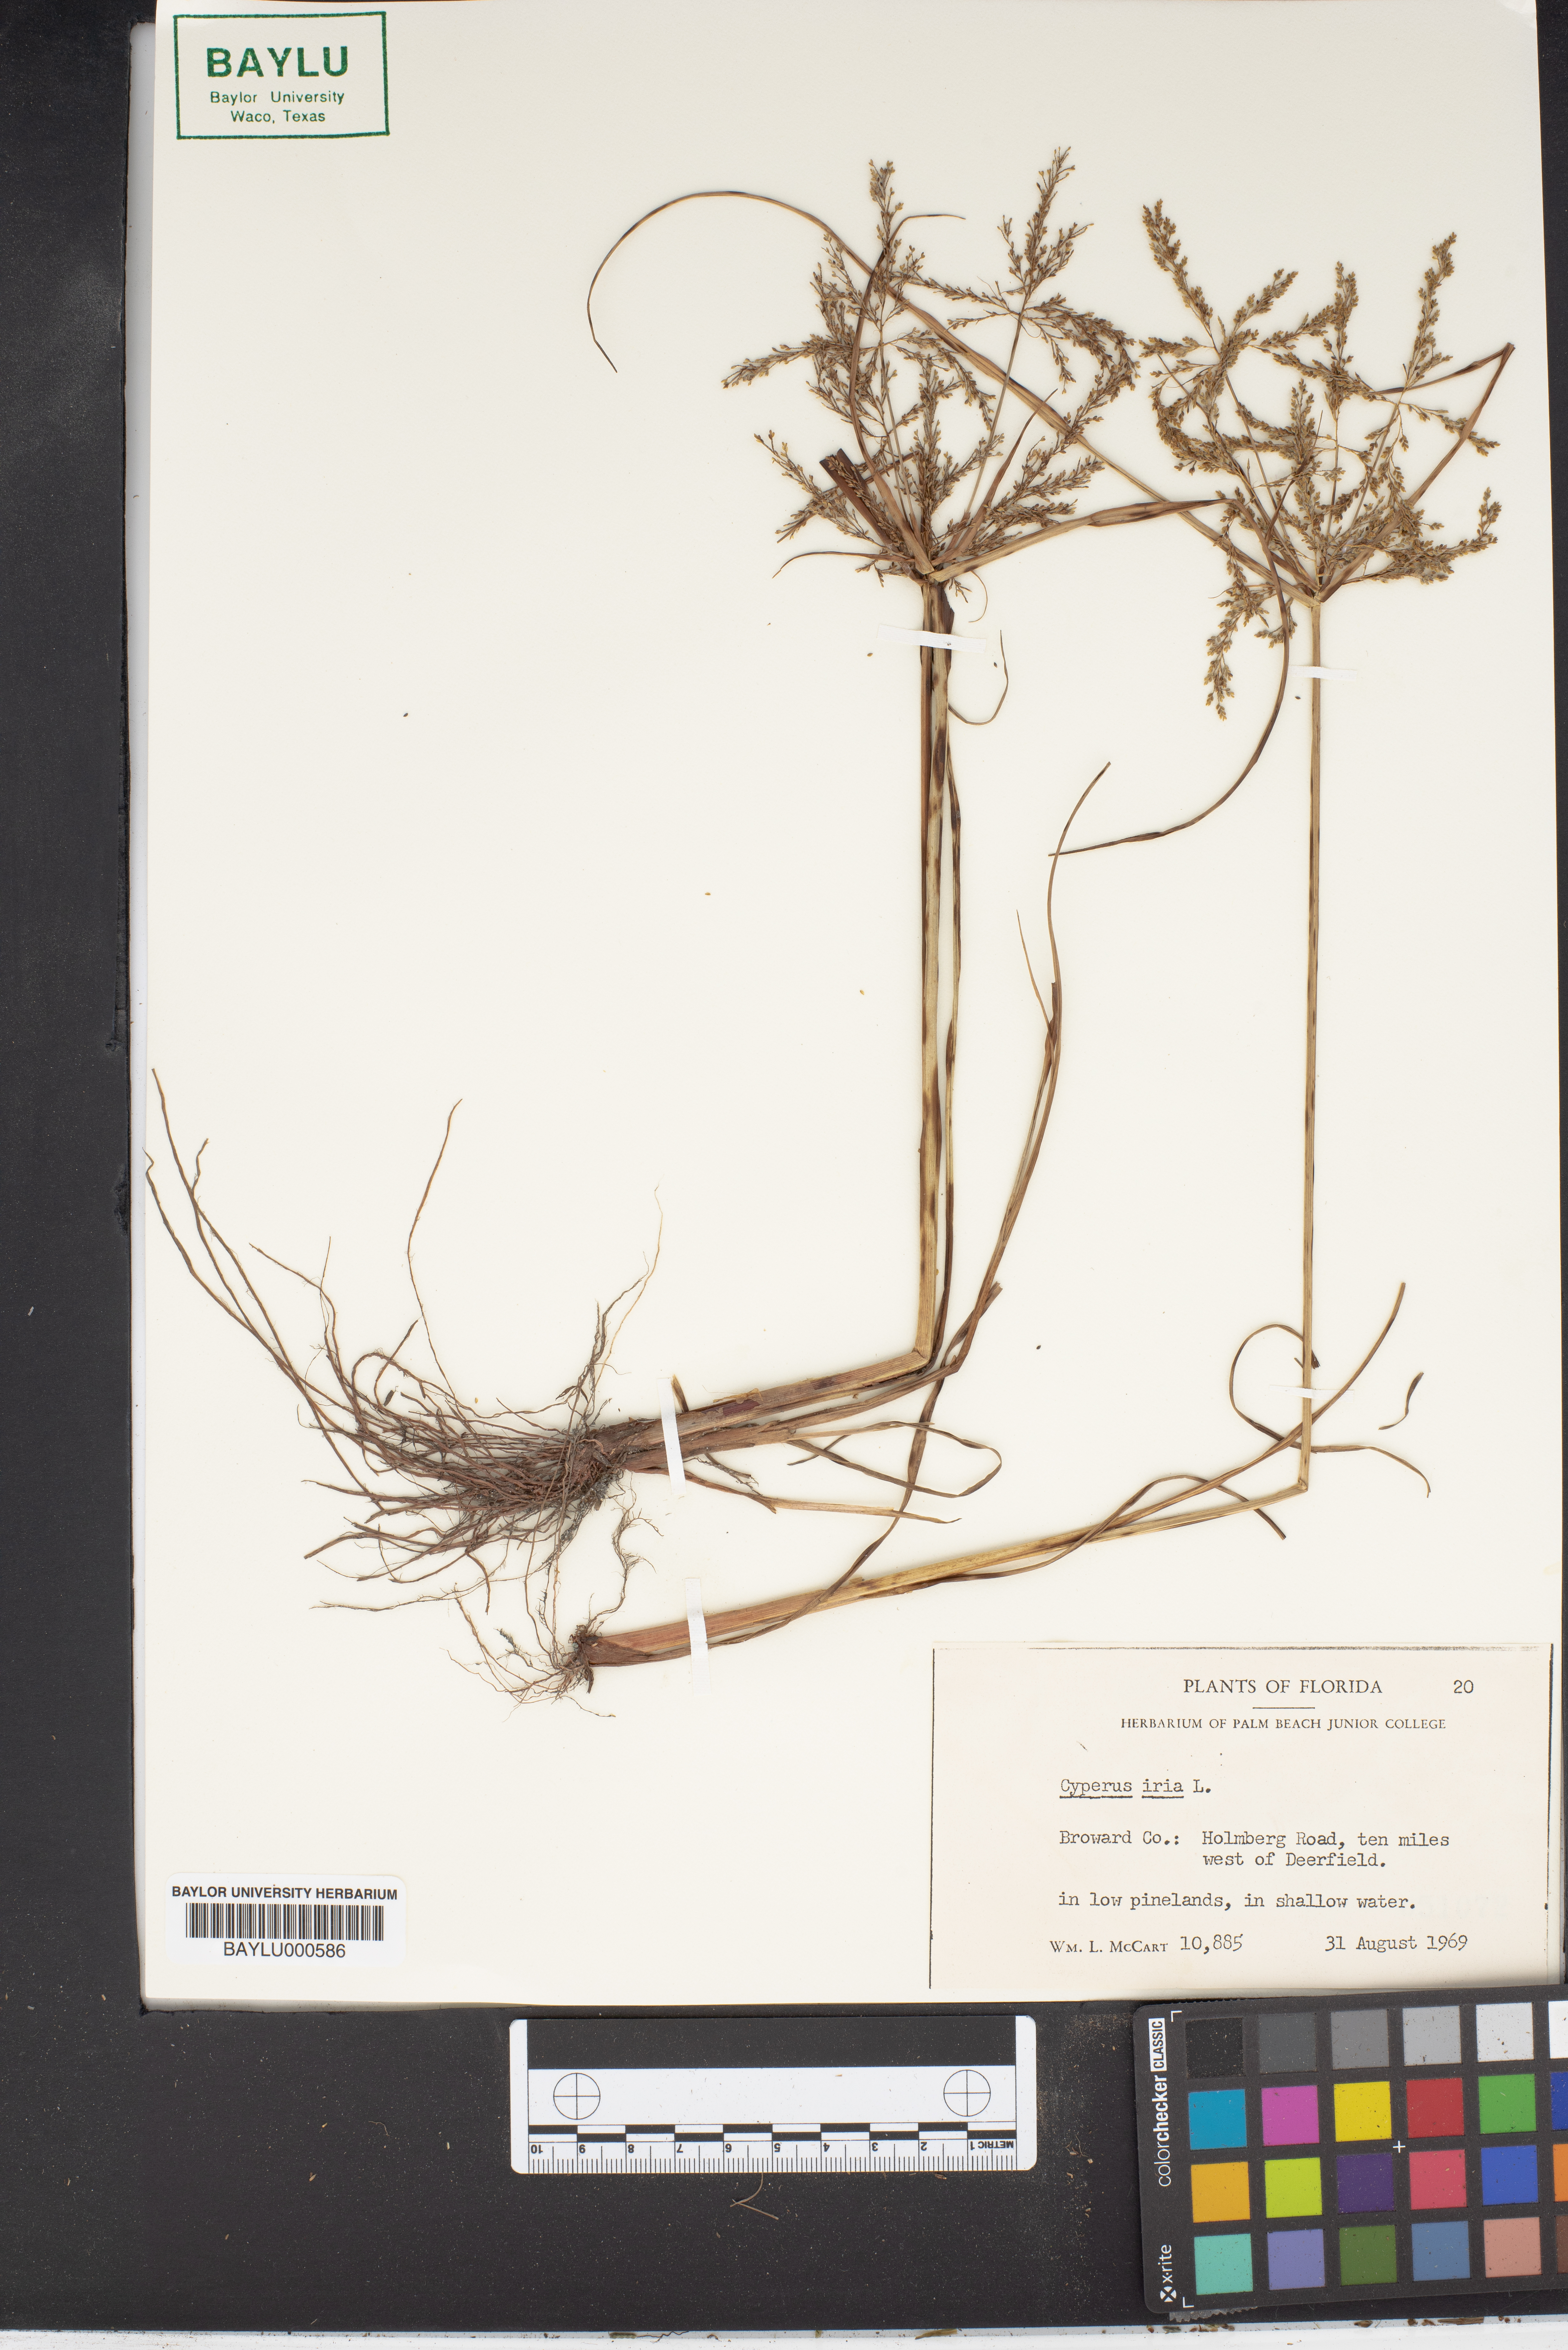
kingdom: Plantae
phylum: Tracheophyta
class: Liliopsida
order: Poales
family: Cyperaceae
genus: Cyperus
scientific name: Cyperus iria
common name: Ricefield flatsedge
